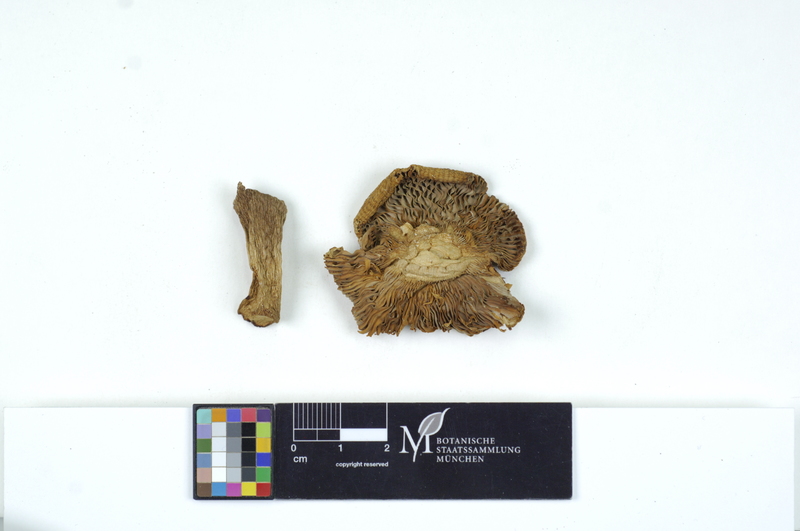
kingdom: Fungi
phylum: Basidiomycota
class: Agaricomycetes
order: Russulales
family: Russulaceae
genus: Russula
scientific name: Russula ionochlora
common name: Marbled brittlegill
